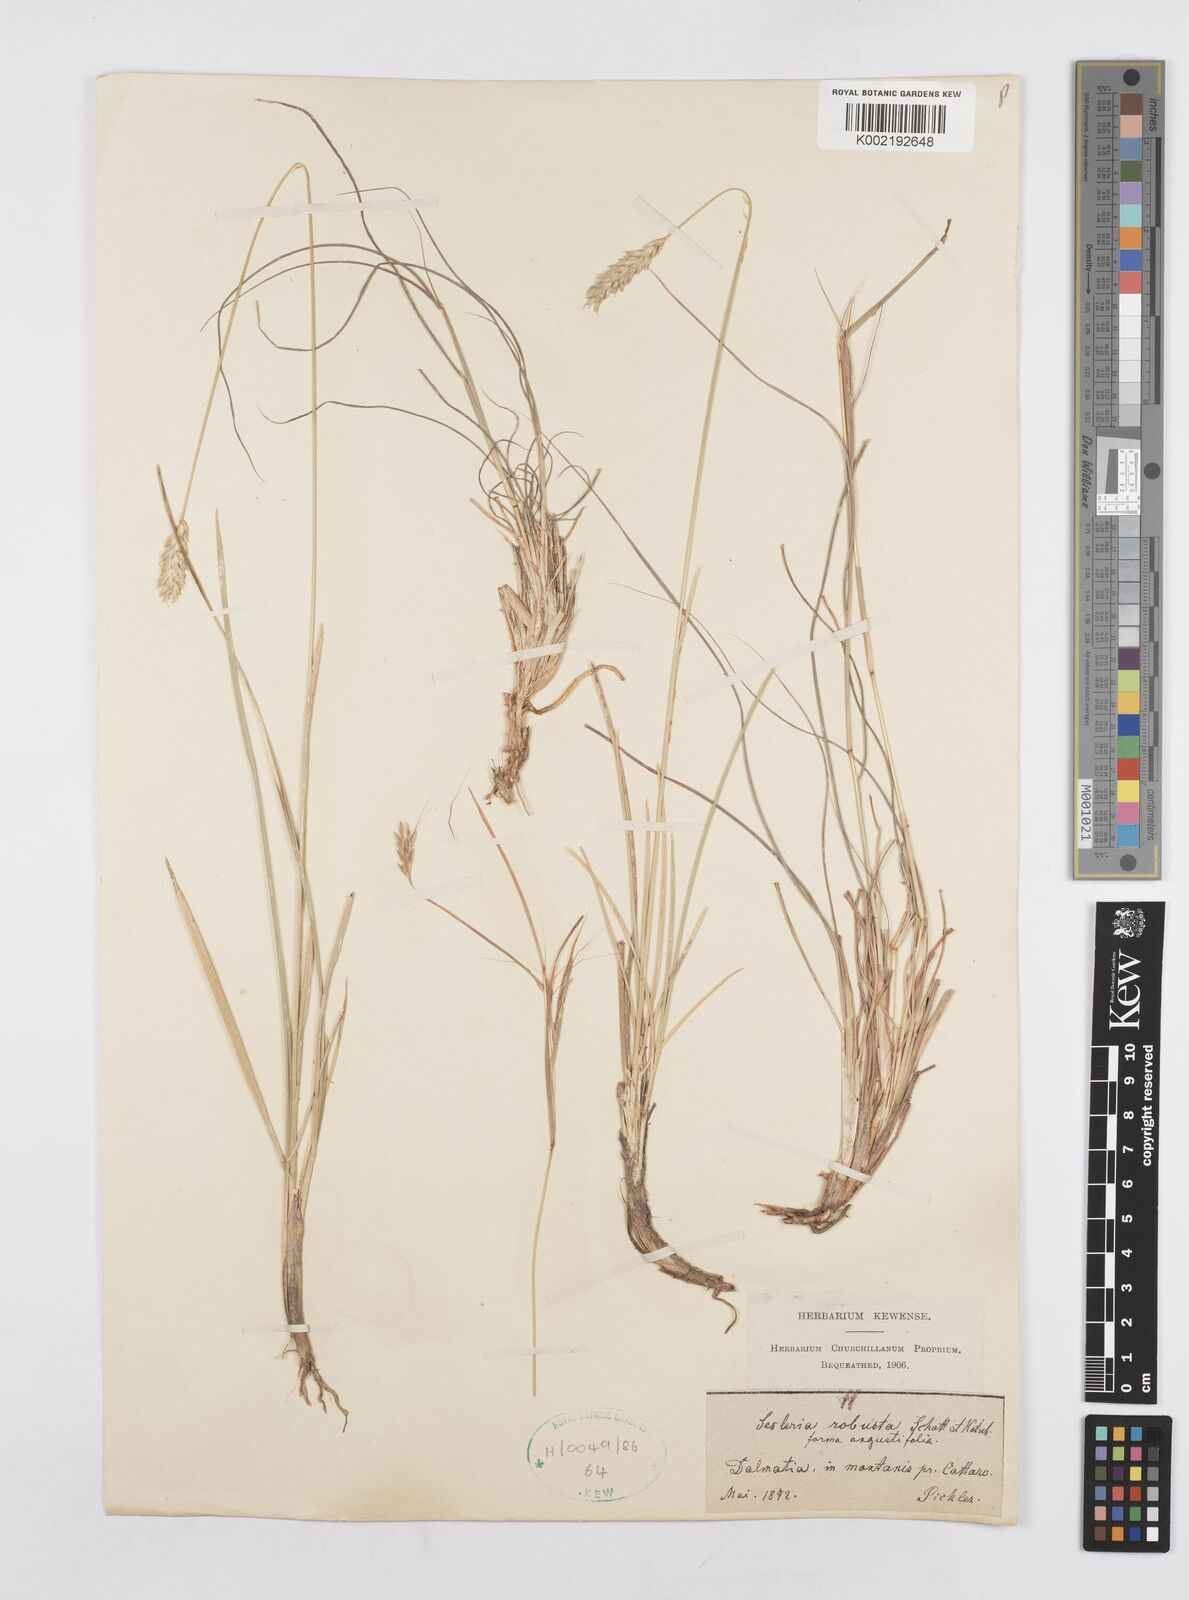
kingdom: Plantae
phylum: Tracheophyta
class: Liliopsida
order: Poales
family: Poaceae
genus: Sesleria
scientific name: Sesleria robusta
